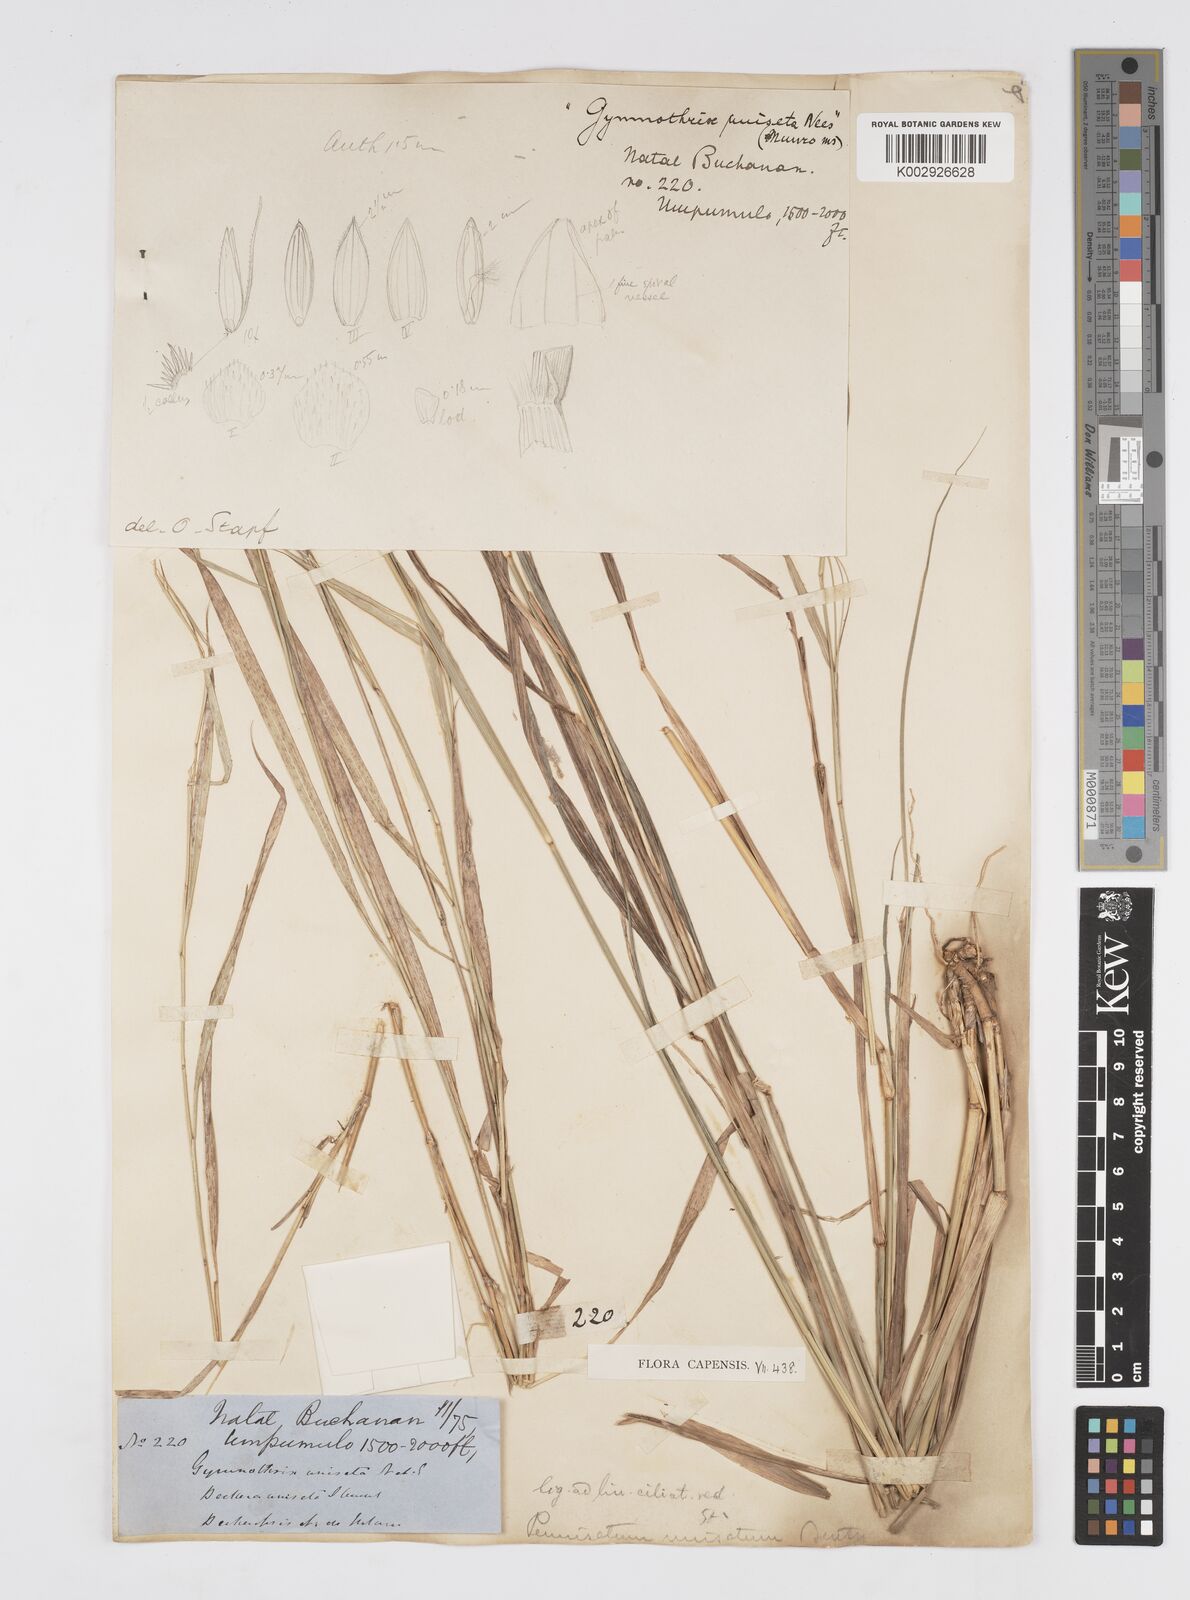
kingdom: Plantae
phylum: Tracheophyta
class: Liliopsida
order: Poales
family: Poaceae
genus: Cenchrus
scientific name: Cenchrus unisetus
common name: Natal grass
